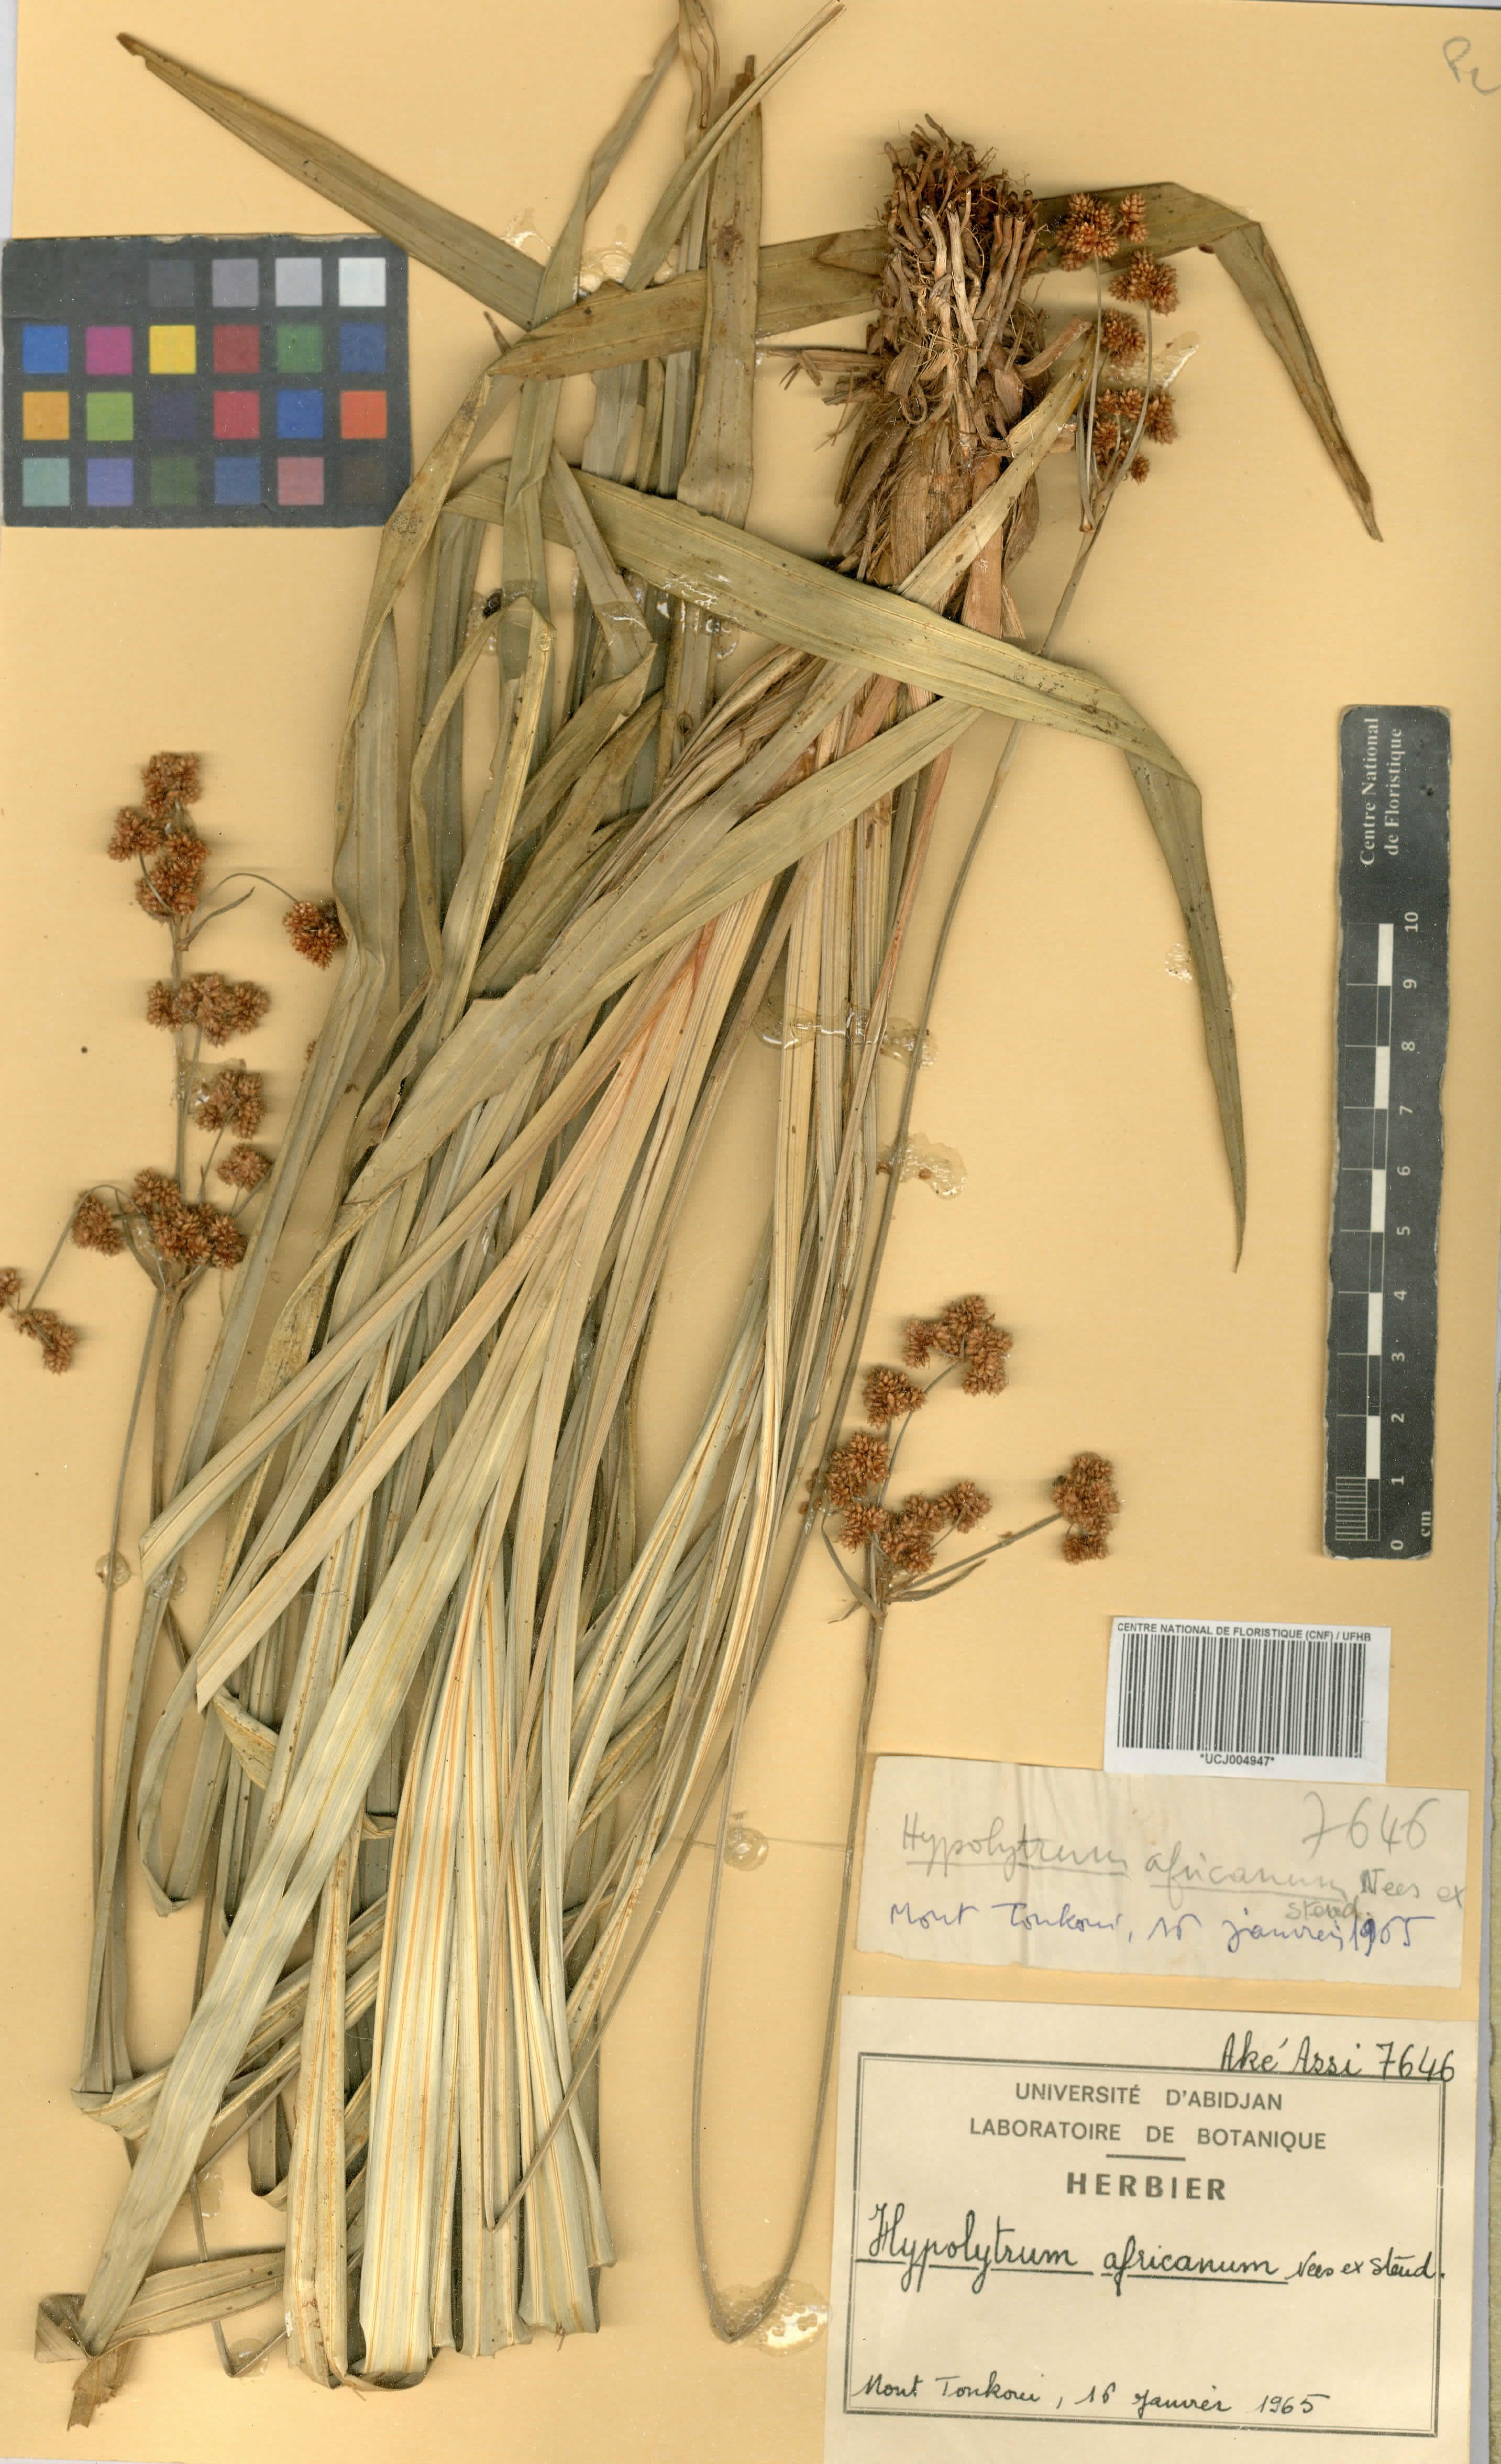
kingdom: Plantae
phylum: Tracheophyta
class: Liliopsida
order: Poales
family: Cyperaceae
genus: Hypolytrum
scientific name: Hypolytrum africanum
